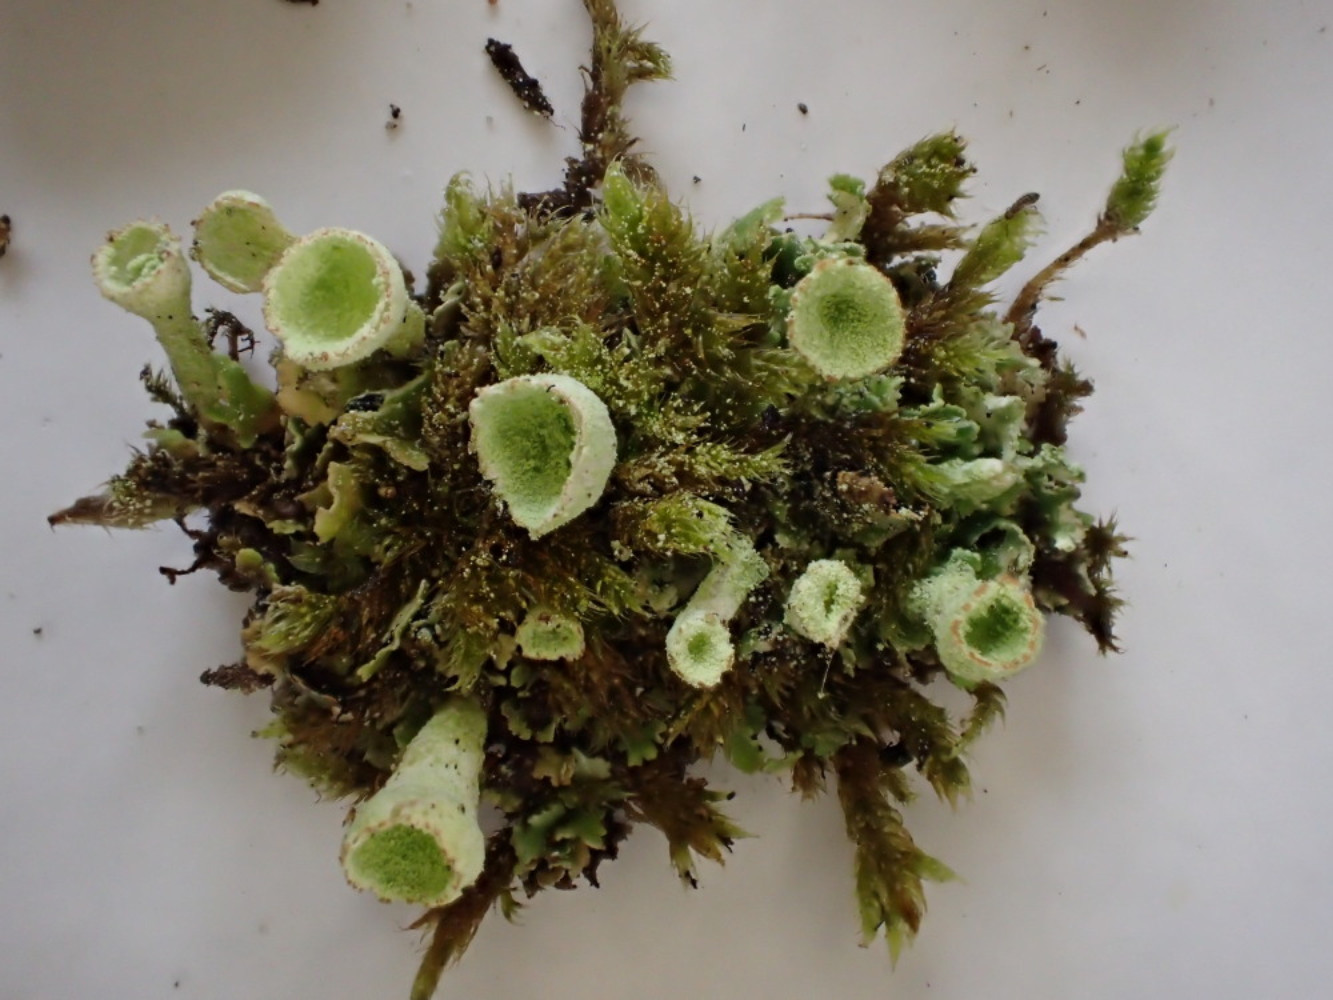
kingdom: Fungi
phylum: Ascomycota
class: Lecanoromycetes
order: Lecanorales
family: Cladoniaceae
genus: Cladonia
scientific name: Cladonia humilis
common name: lav bægerlav
